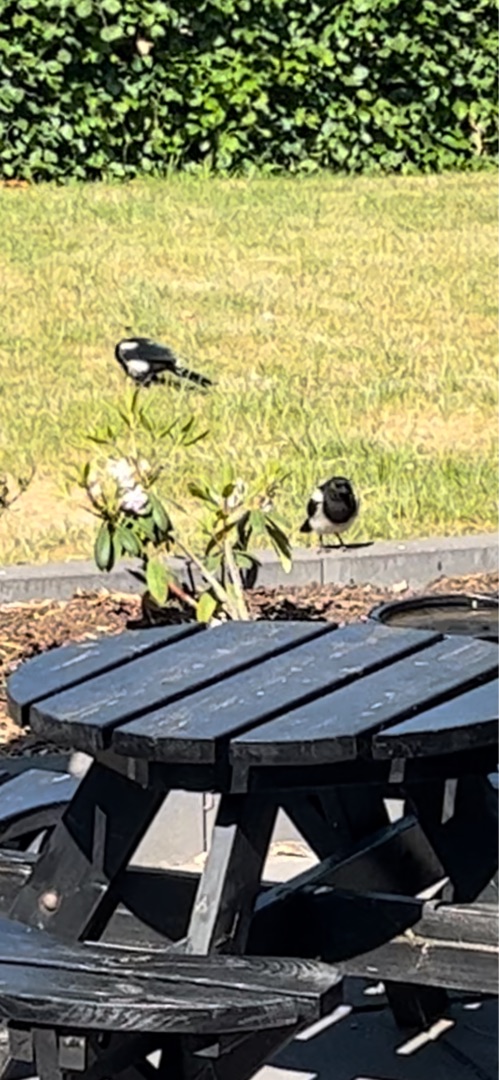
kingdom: Animalia
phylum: Chordata
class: Aves
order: Passeriformes
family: Corvidae
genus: Pica
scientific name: Pica pica
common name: Husskade
